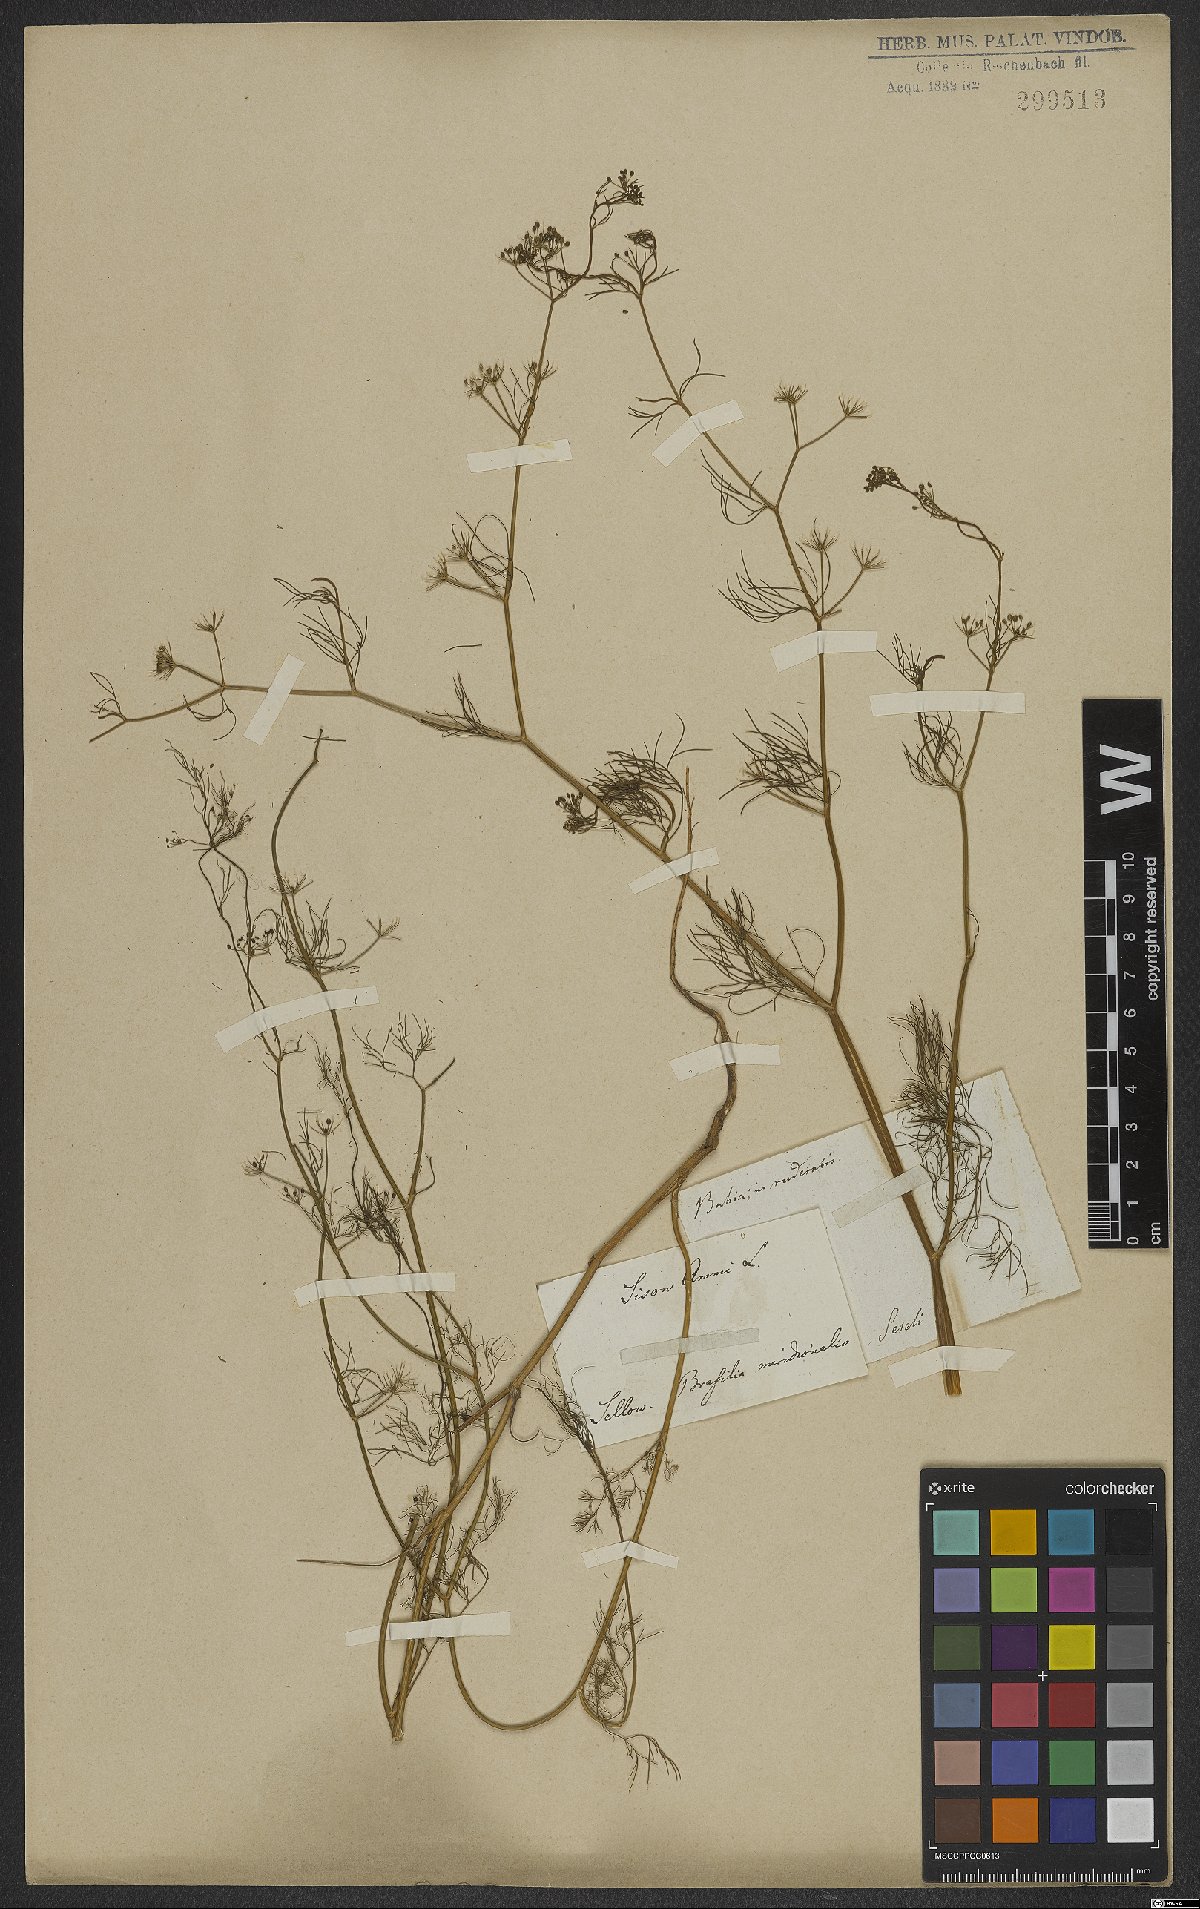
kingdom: Plantae
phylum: Tracheophyta
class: Magnoliopsida
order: Apiales
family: Apiaceae
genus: Cyclospermum
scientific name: Cyclospermum leptophyllum
